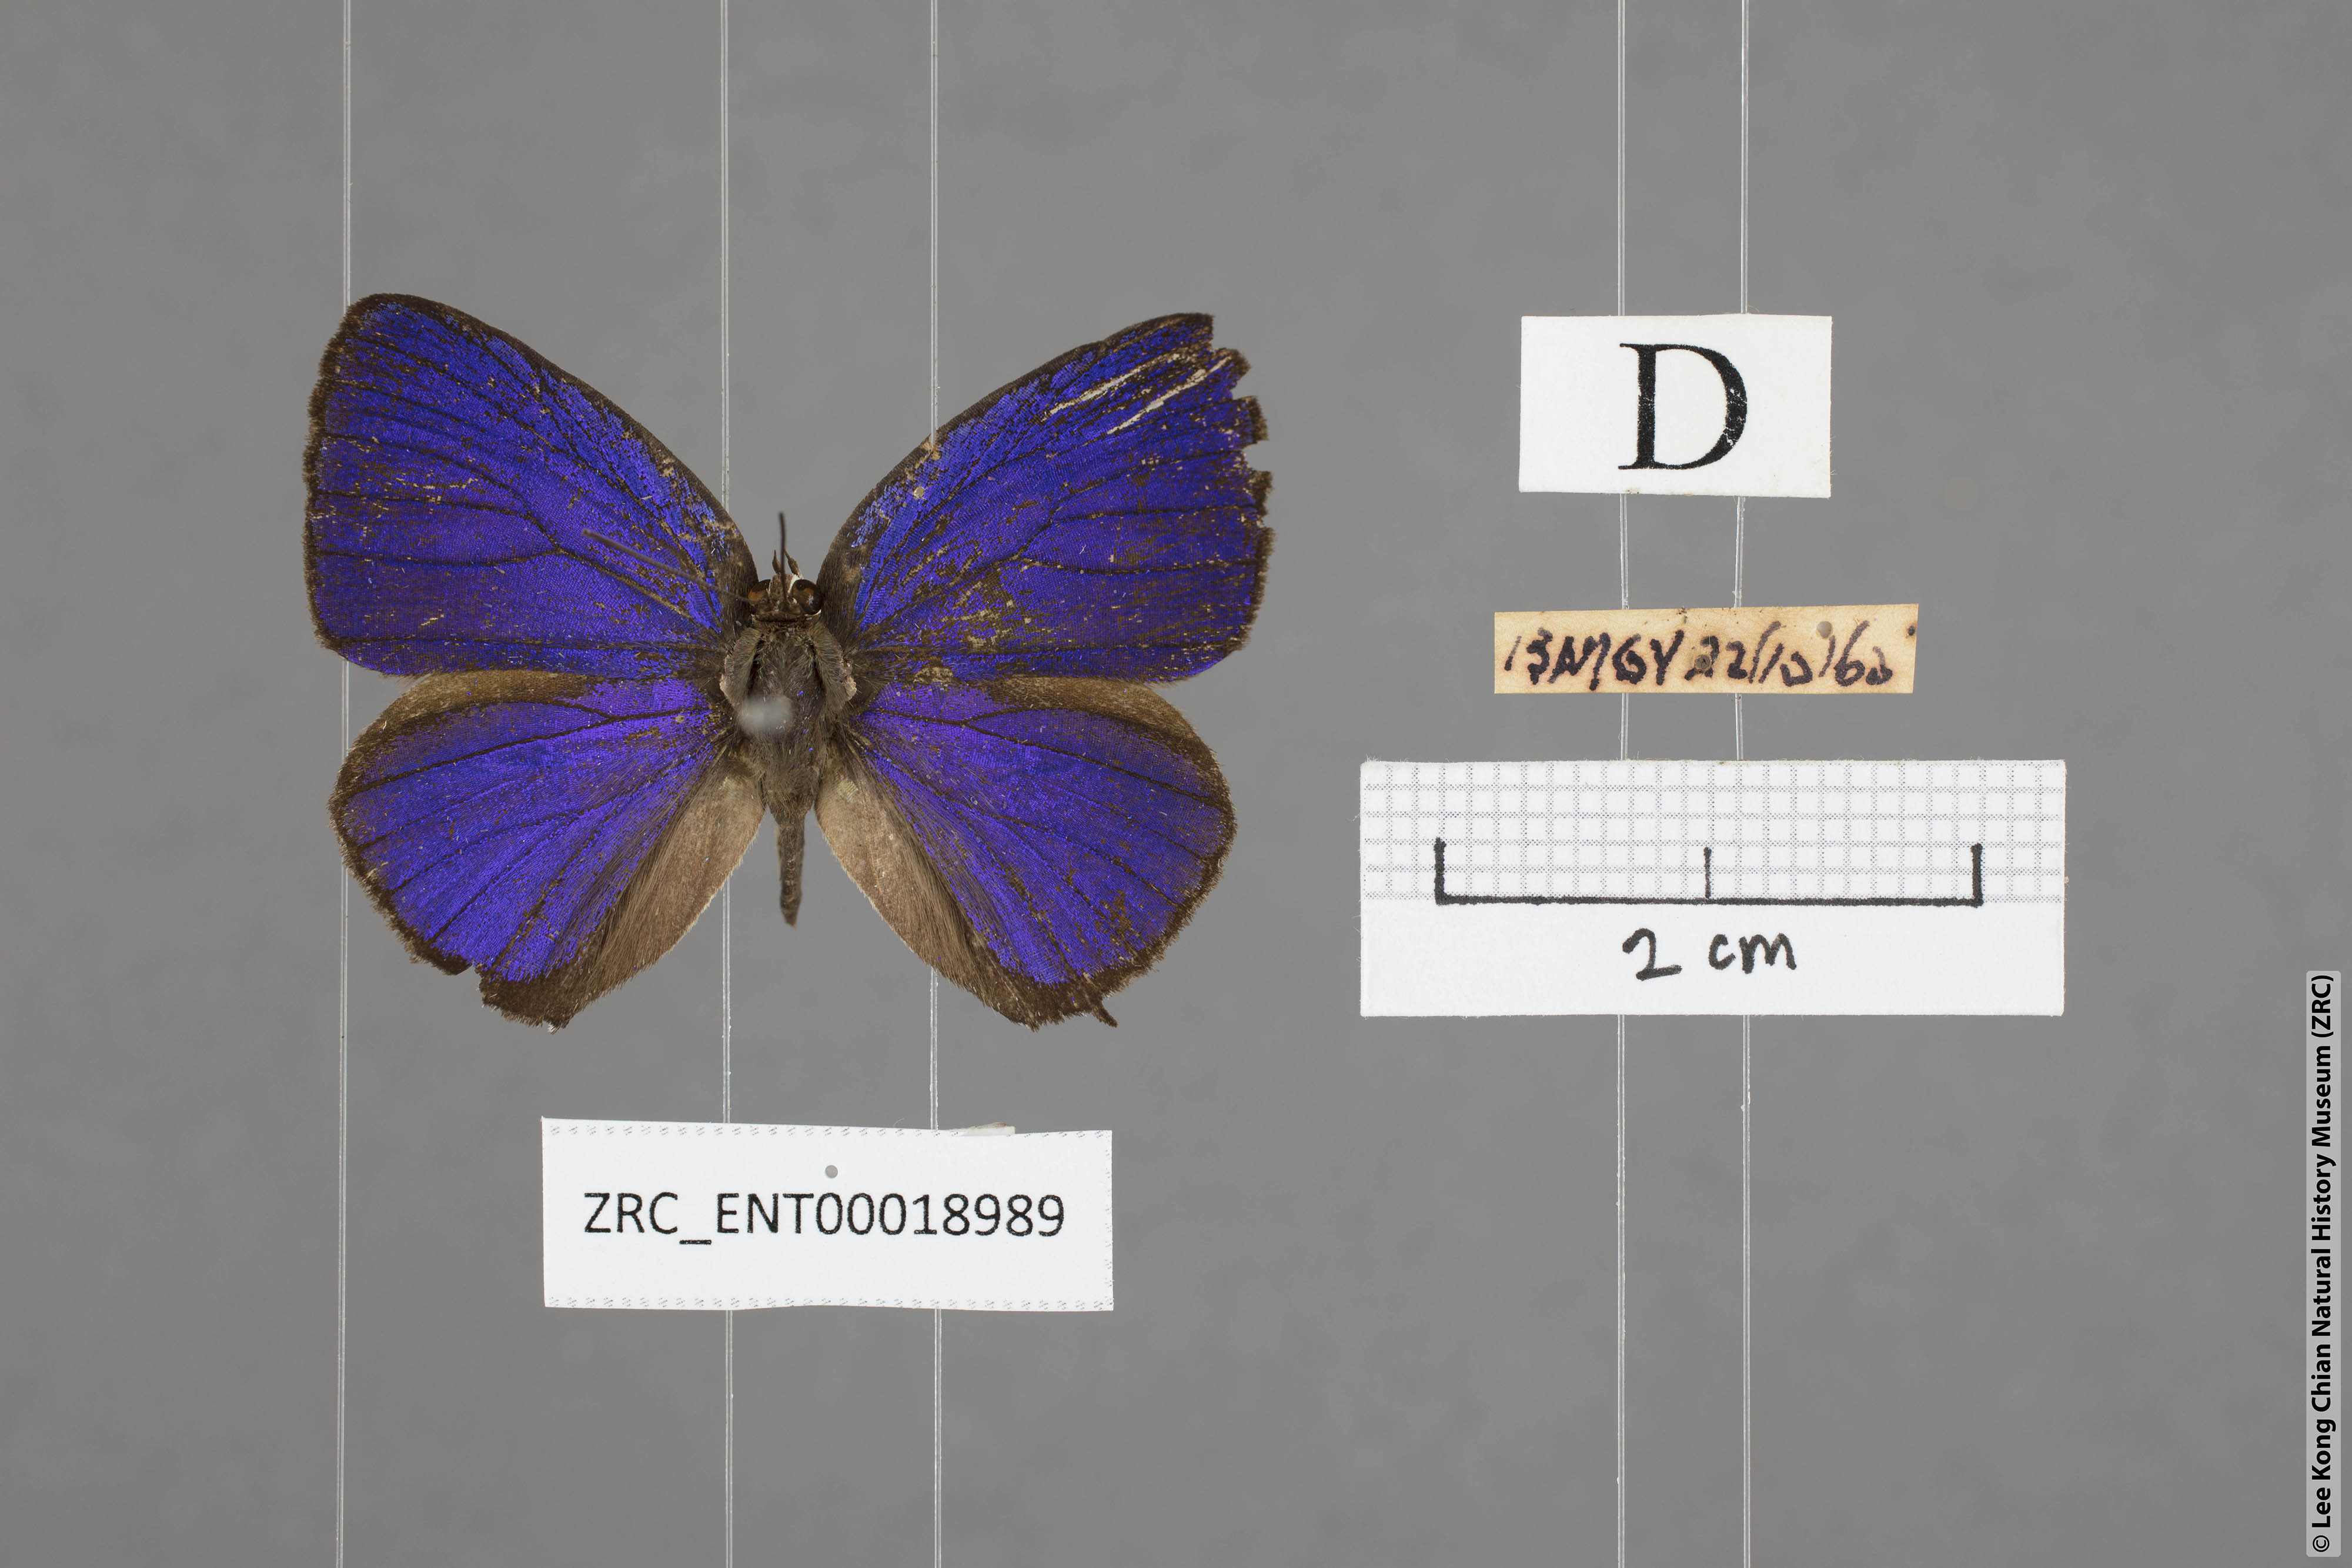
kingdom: Animalia
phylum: Arthropoda
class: Insecta
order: Lepidoptera
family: Lycaenidae
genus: Arhopala
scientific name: Arhopala achelous
